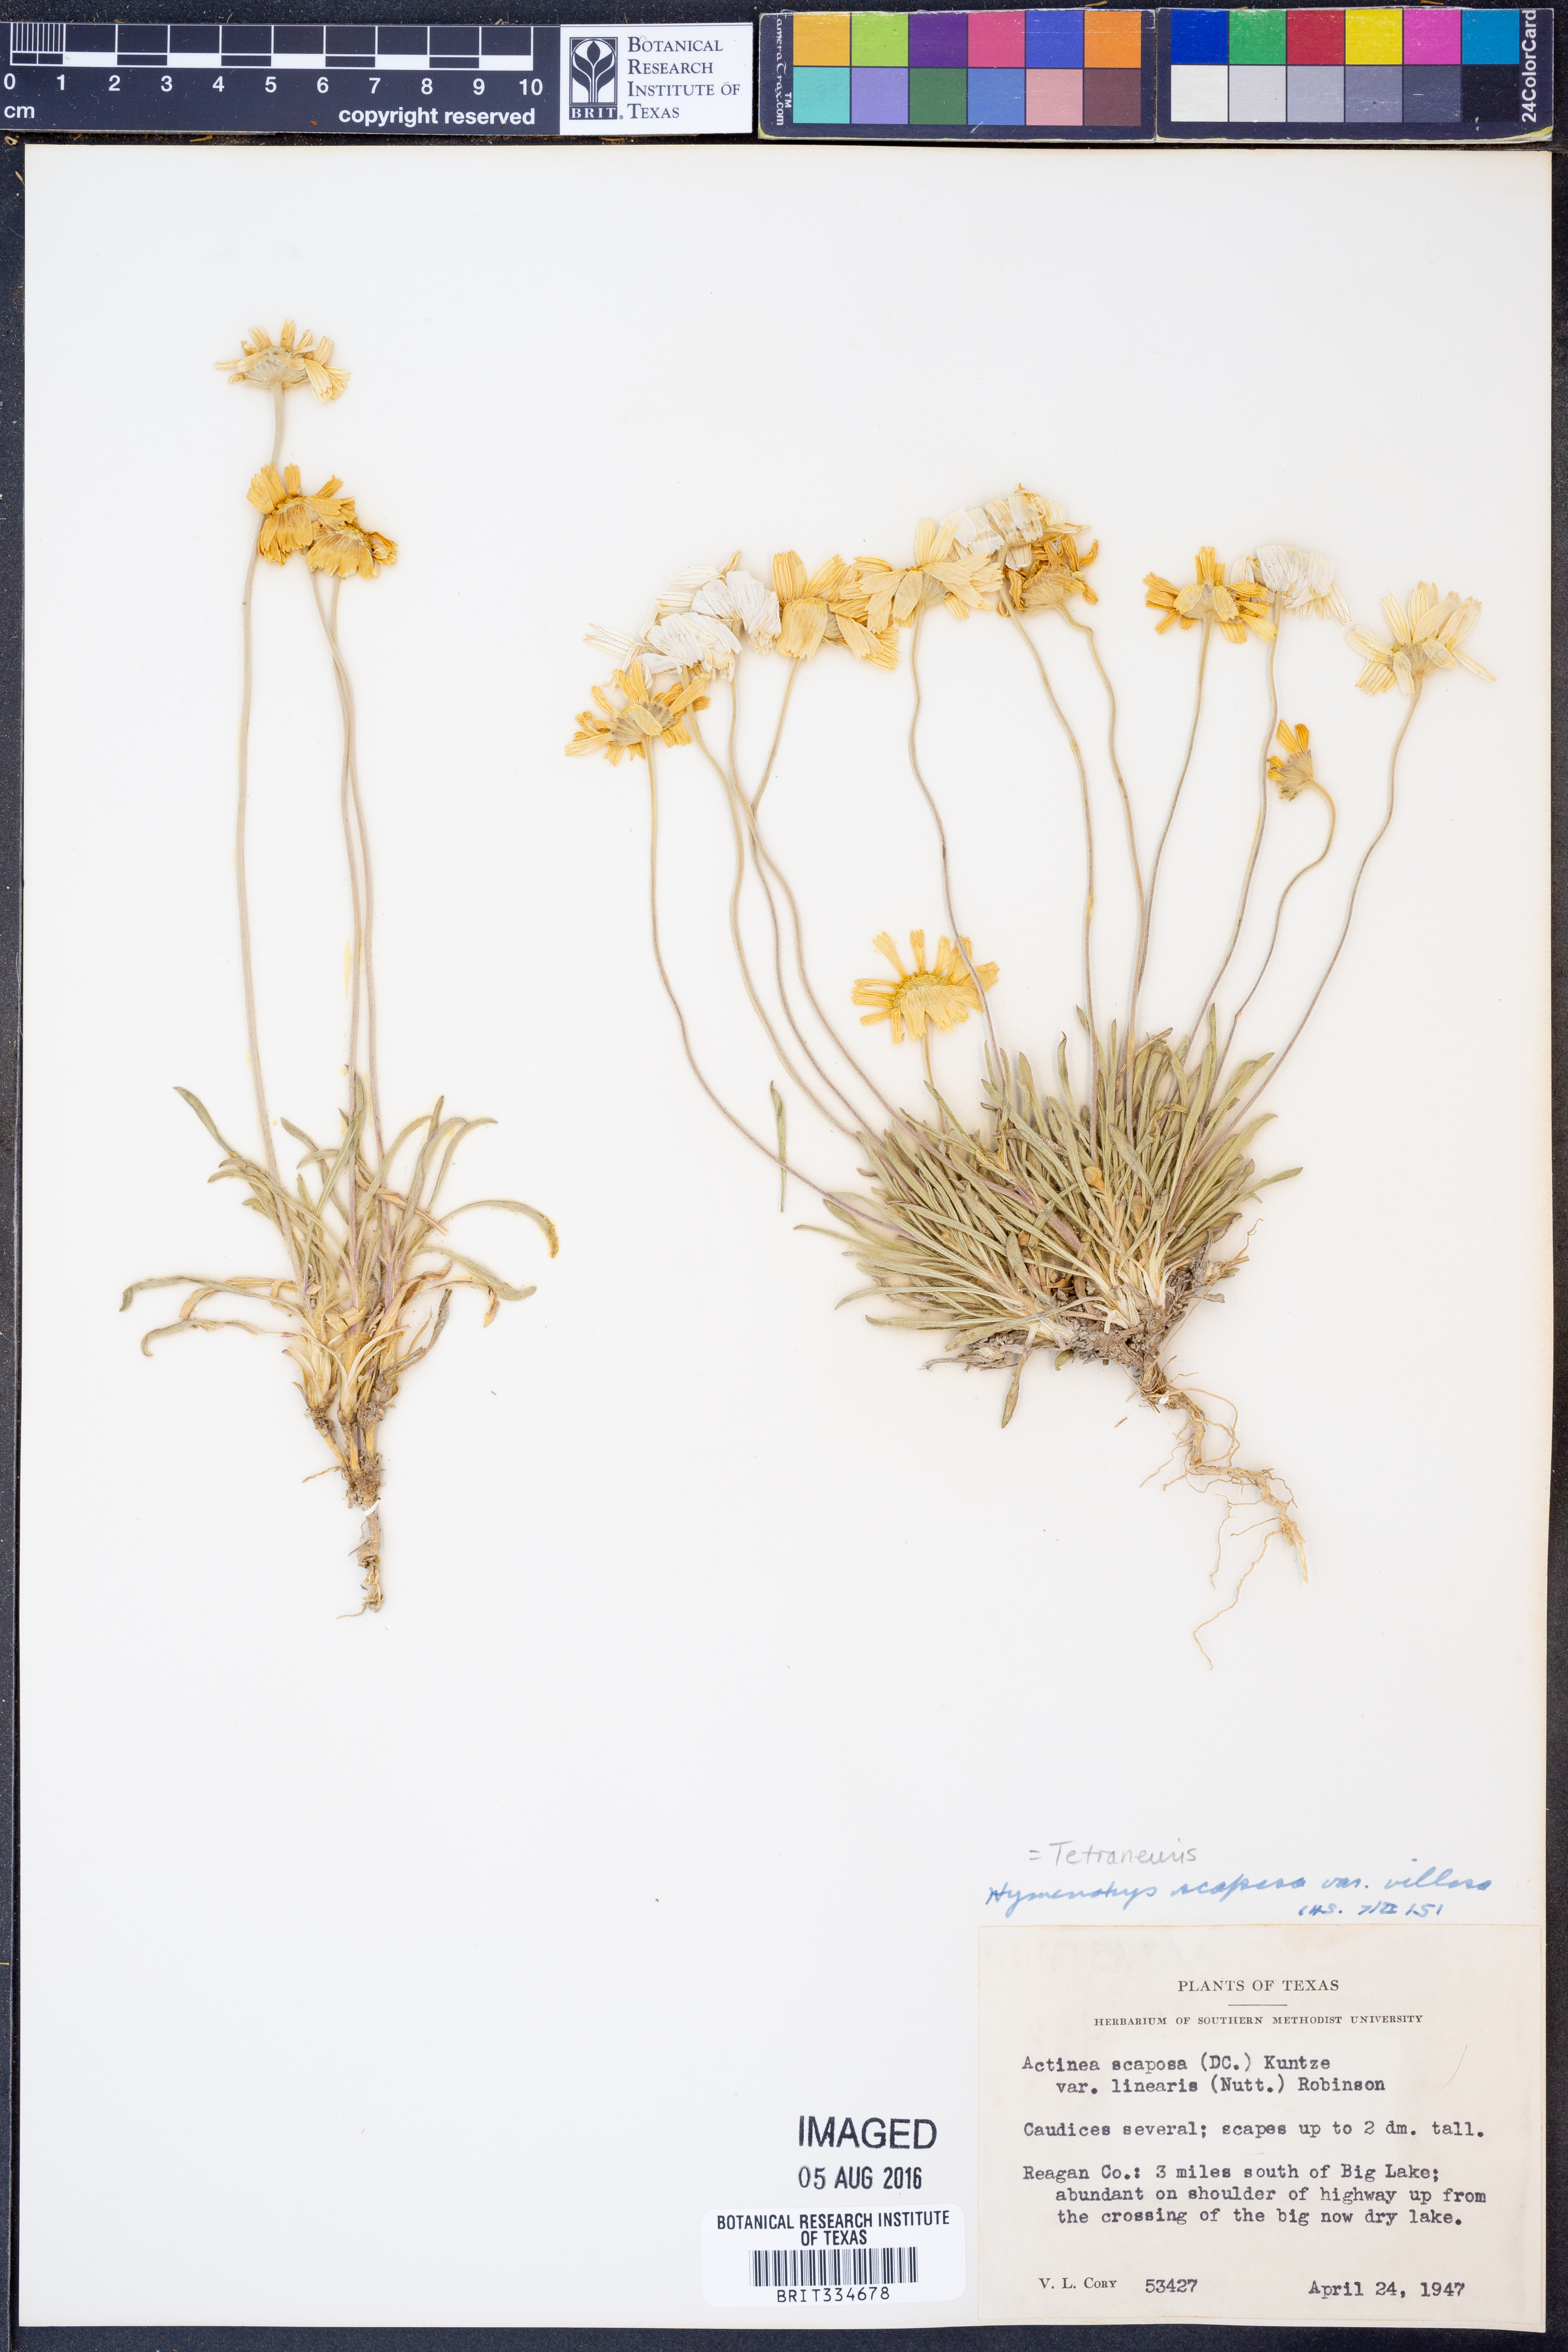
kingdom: Plantae
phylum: Tracheophyta
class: Magnoliopsida
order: Asterales
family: Asteraceae
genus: Tetraneuris
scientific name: Tetraneuris scaposa
